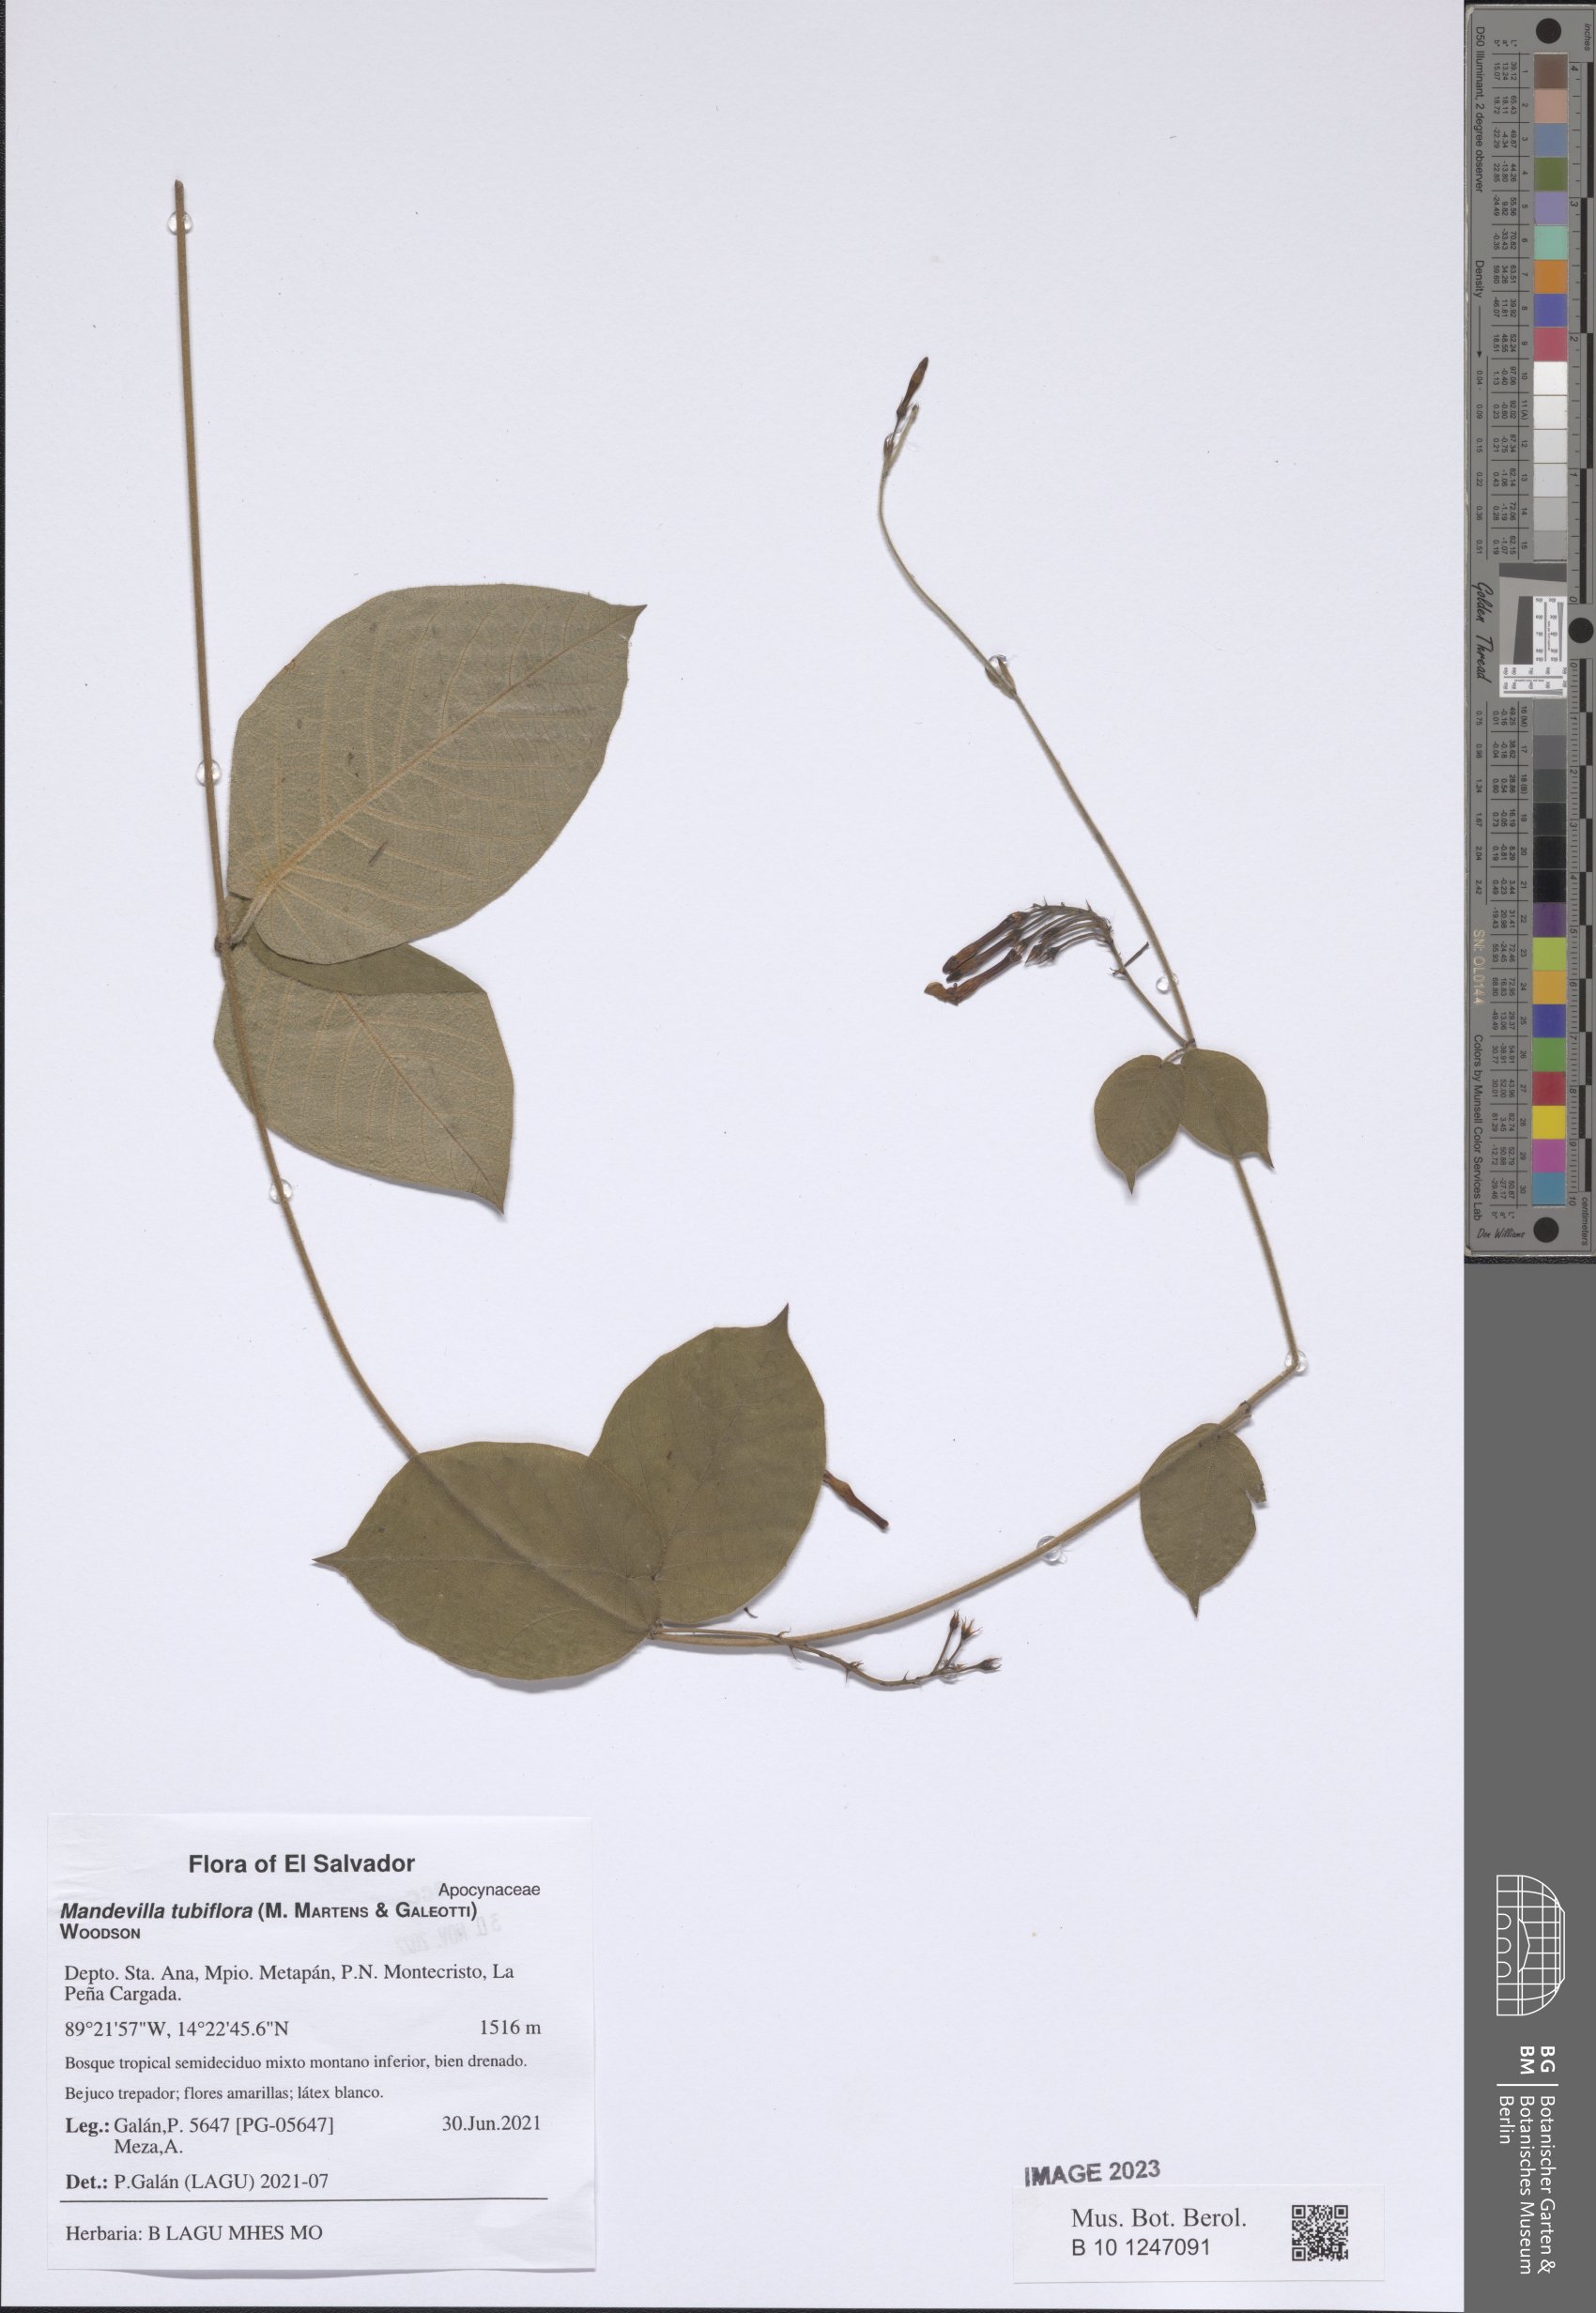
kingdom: Plantae
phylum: Tracheophyta
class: Magnoliopsida
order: Gentianales
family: Apocynaceae
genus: Mandevilla
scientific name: Mandevilla tubiflora
